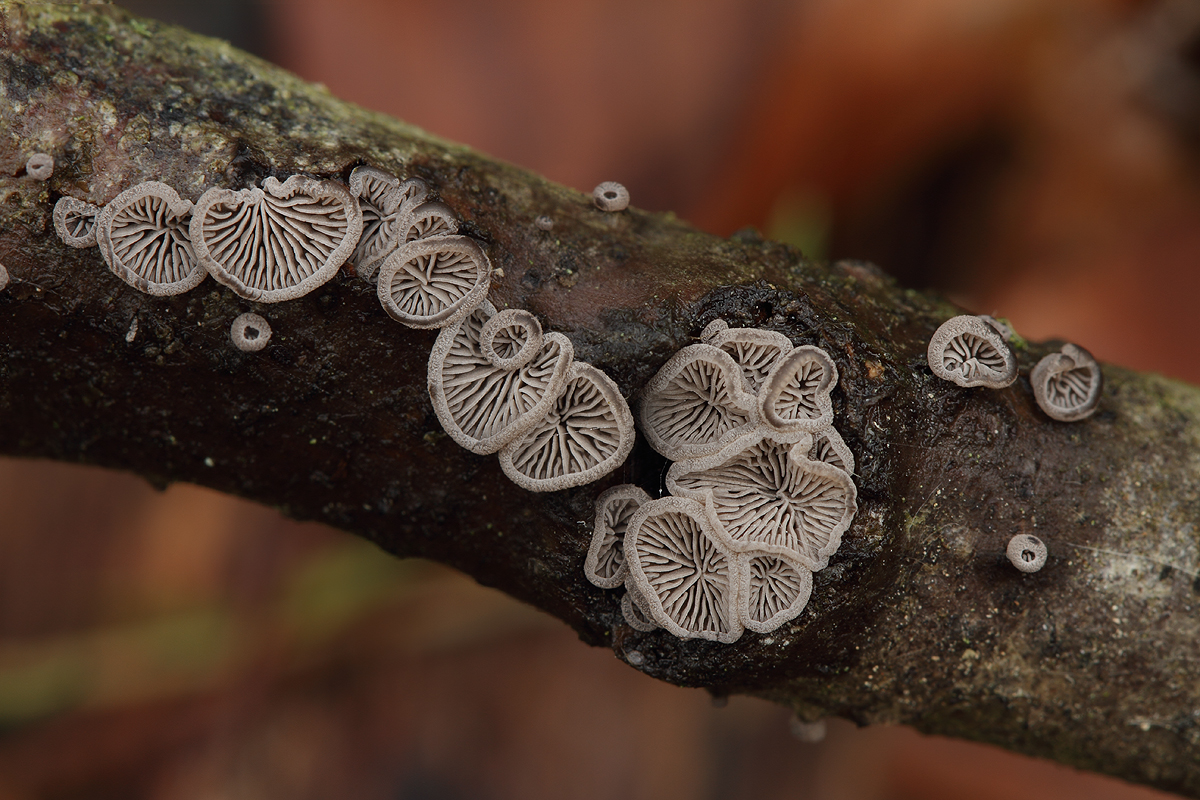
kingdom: Fungi
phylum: Basidiomycota
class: Agaricomycetes
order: Agaricales
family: Pleurotaceae
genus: Resupinatus
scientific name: Resupinatus applicatus
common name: lysfiltet barkhat
